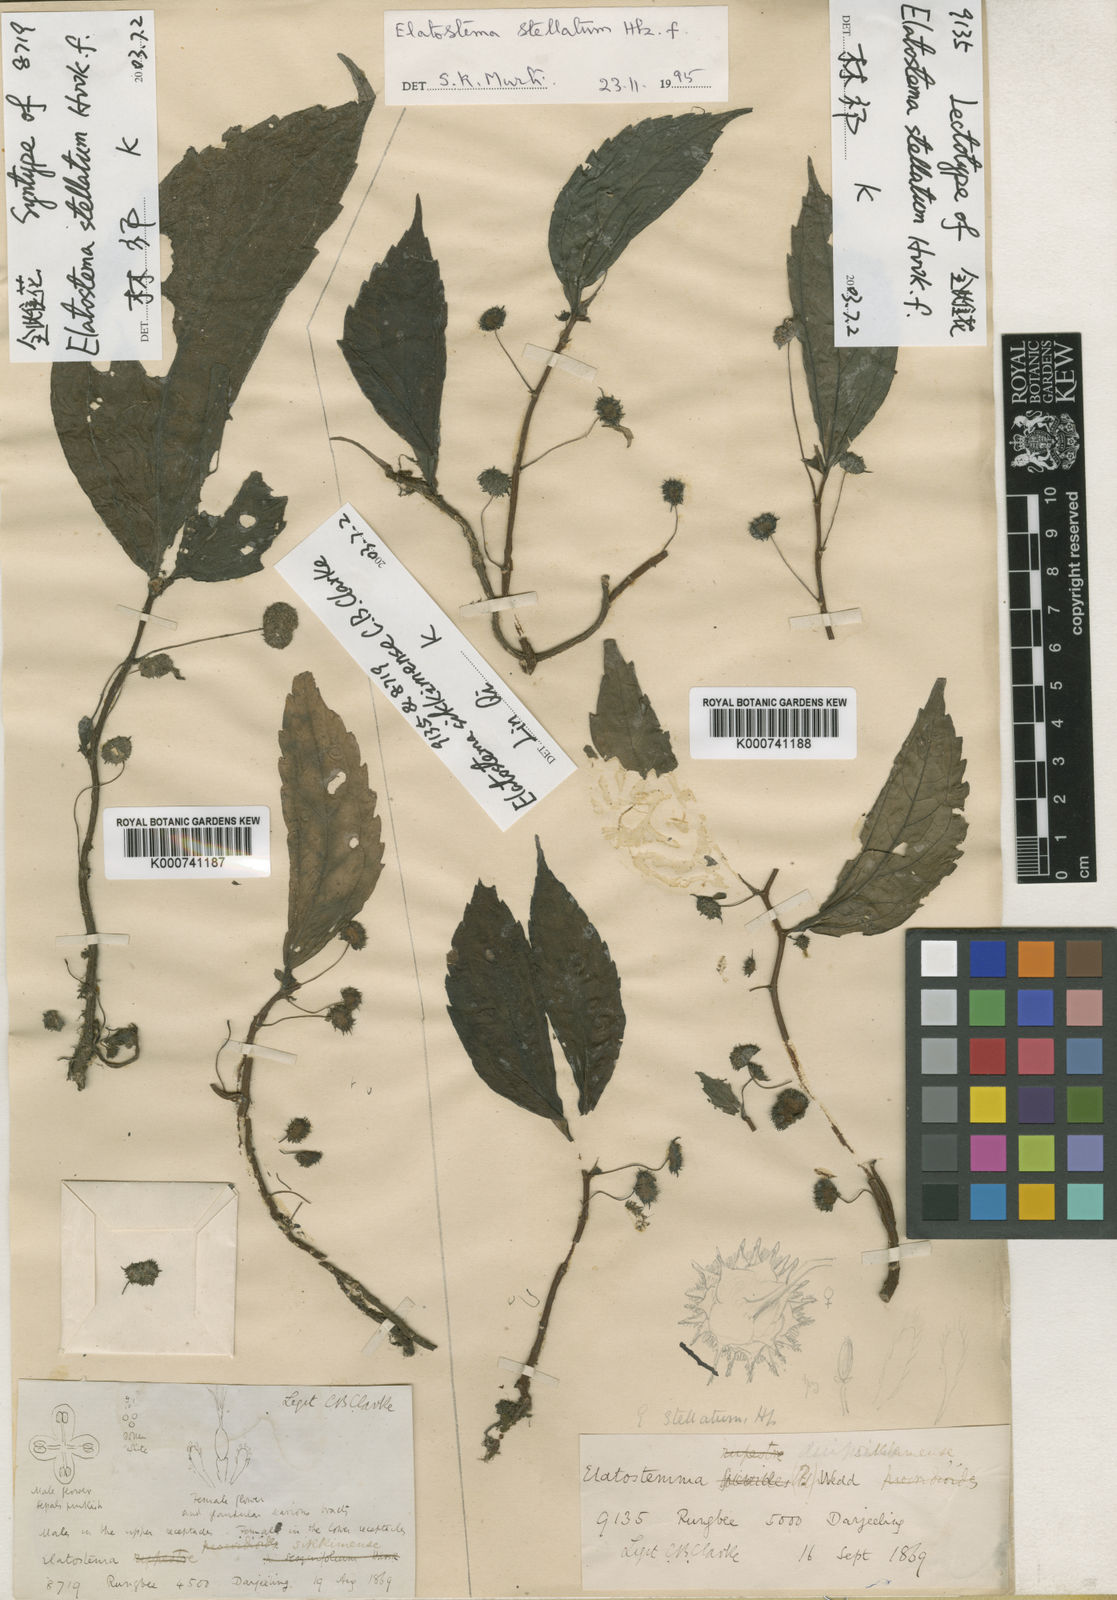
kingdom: Plantae
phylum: Tracheophyta
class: Magnoliopsida
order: Rosales
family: Urticaceae
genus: Elatostema
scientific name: Elatostema stellatum
